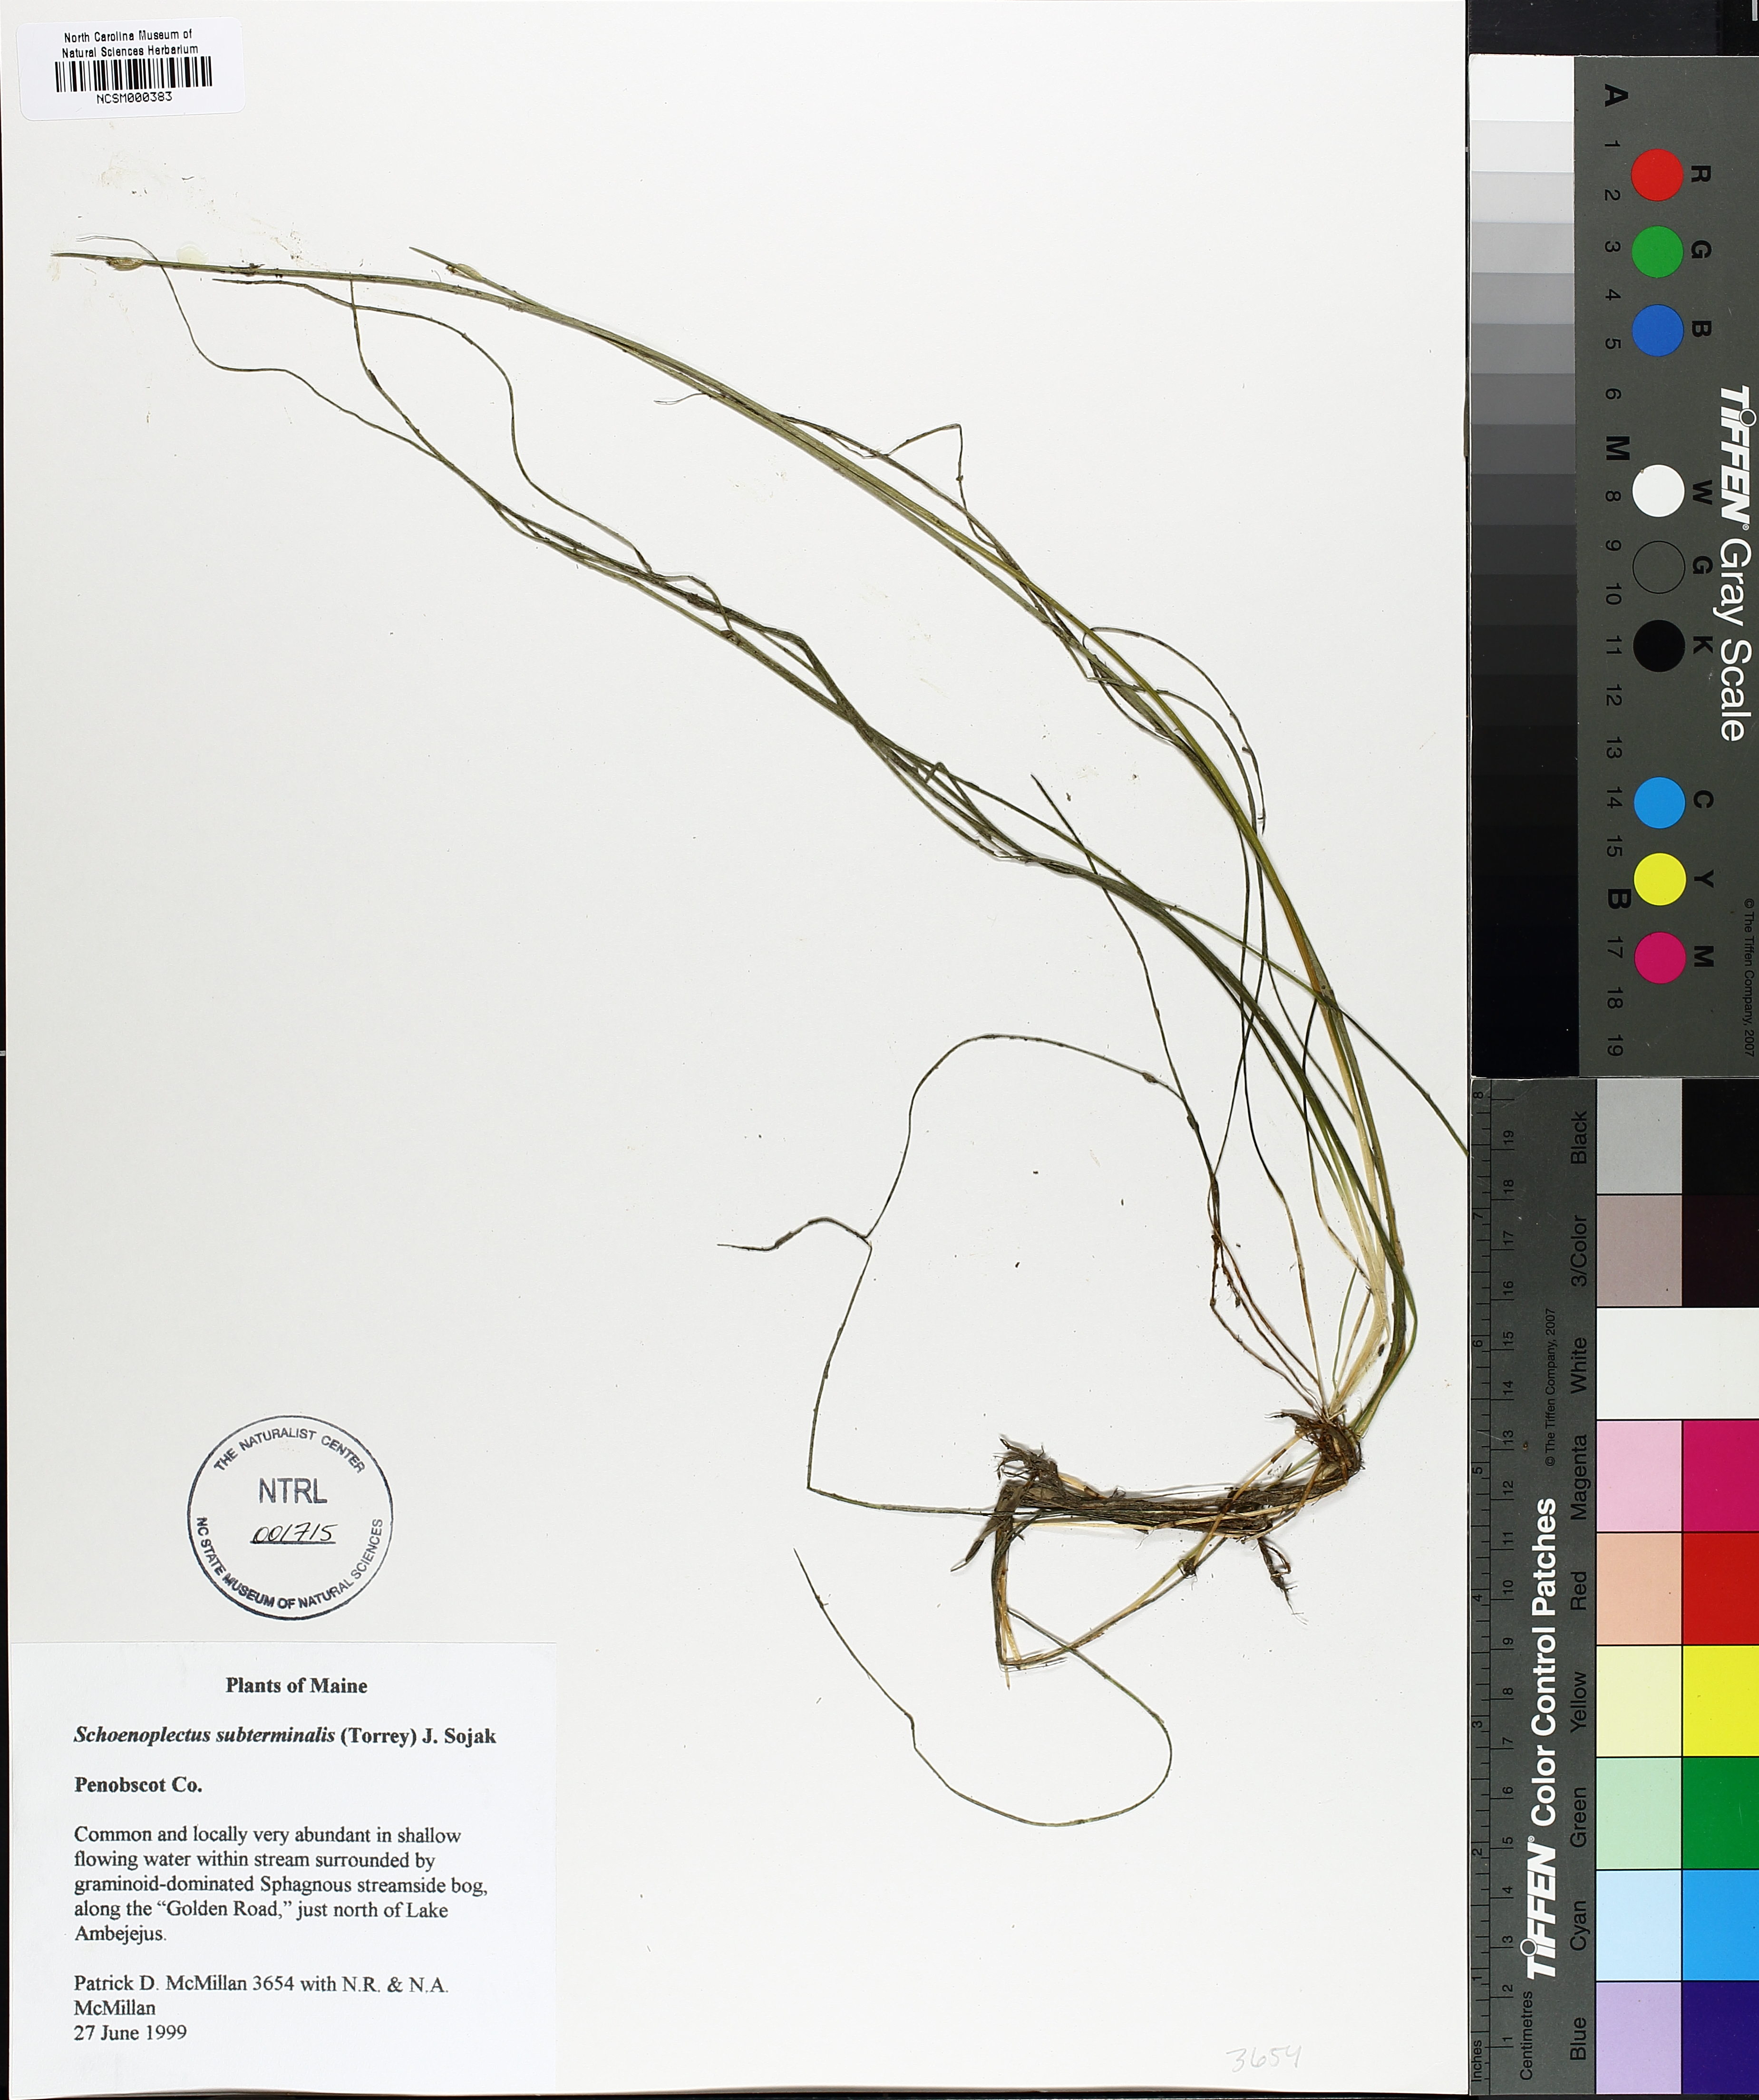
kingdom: Plantae
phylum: Tracheophyta
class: Liliopsida
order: Poales
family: Cyperaceae
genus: Schoenoplectus
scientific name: Schoenoplectus subterminalis
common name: Swaying bulrush
